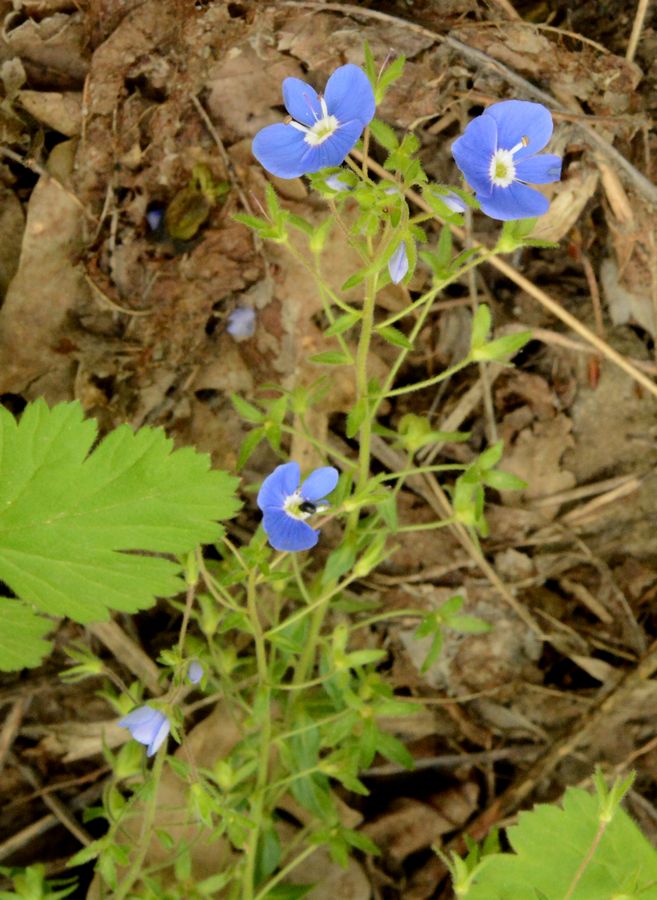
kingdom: Plantae
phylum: Tracheophyta
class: Magnoliopsida
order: Lamiales
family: Plantaginaceae
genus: Veronica
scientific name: Veronica peduncularis
